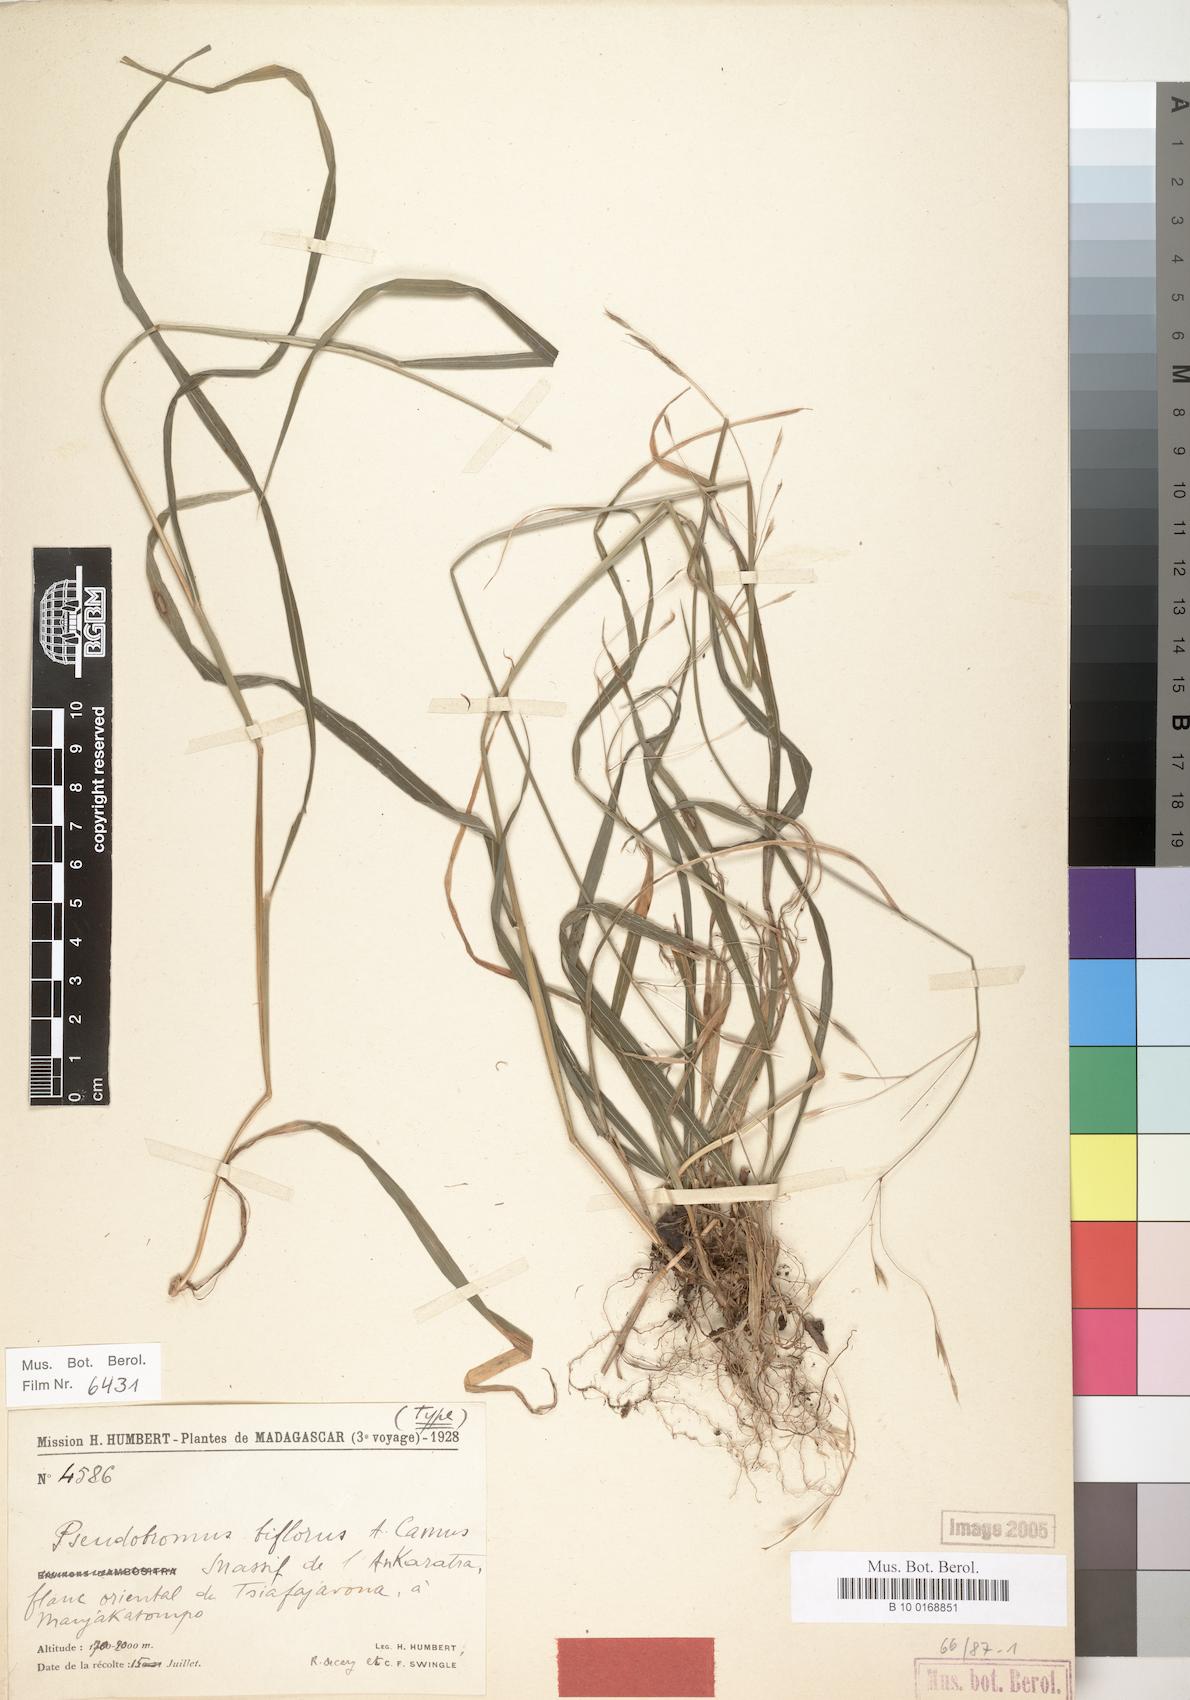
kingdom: Plantae
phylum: Tracheophyta
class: Liliopsida
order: Poales
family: Poaceae
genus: Pseudobromus
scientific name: Pseudobromus breviligulatus
